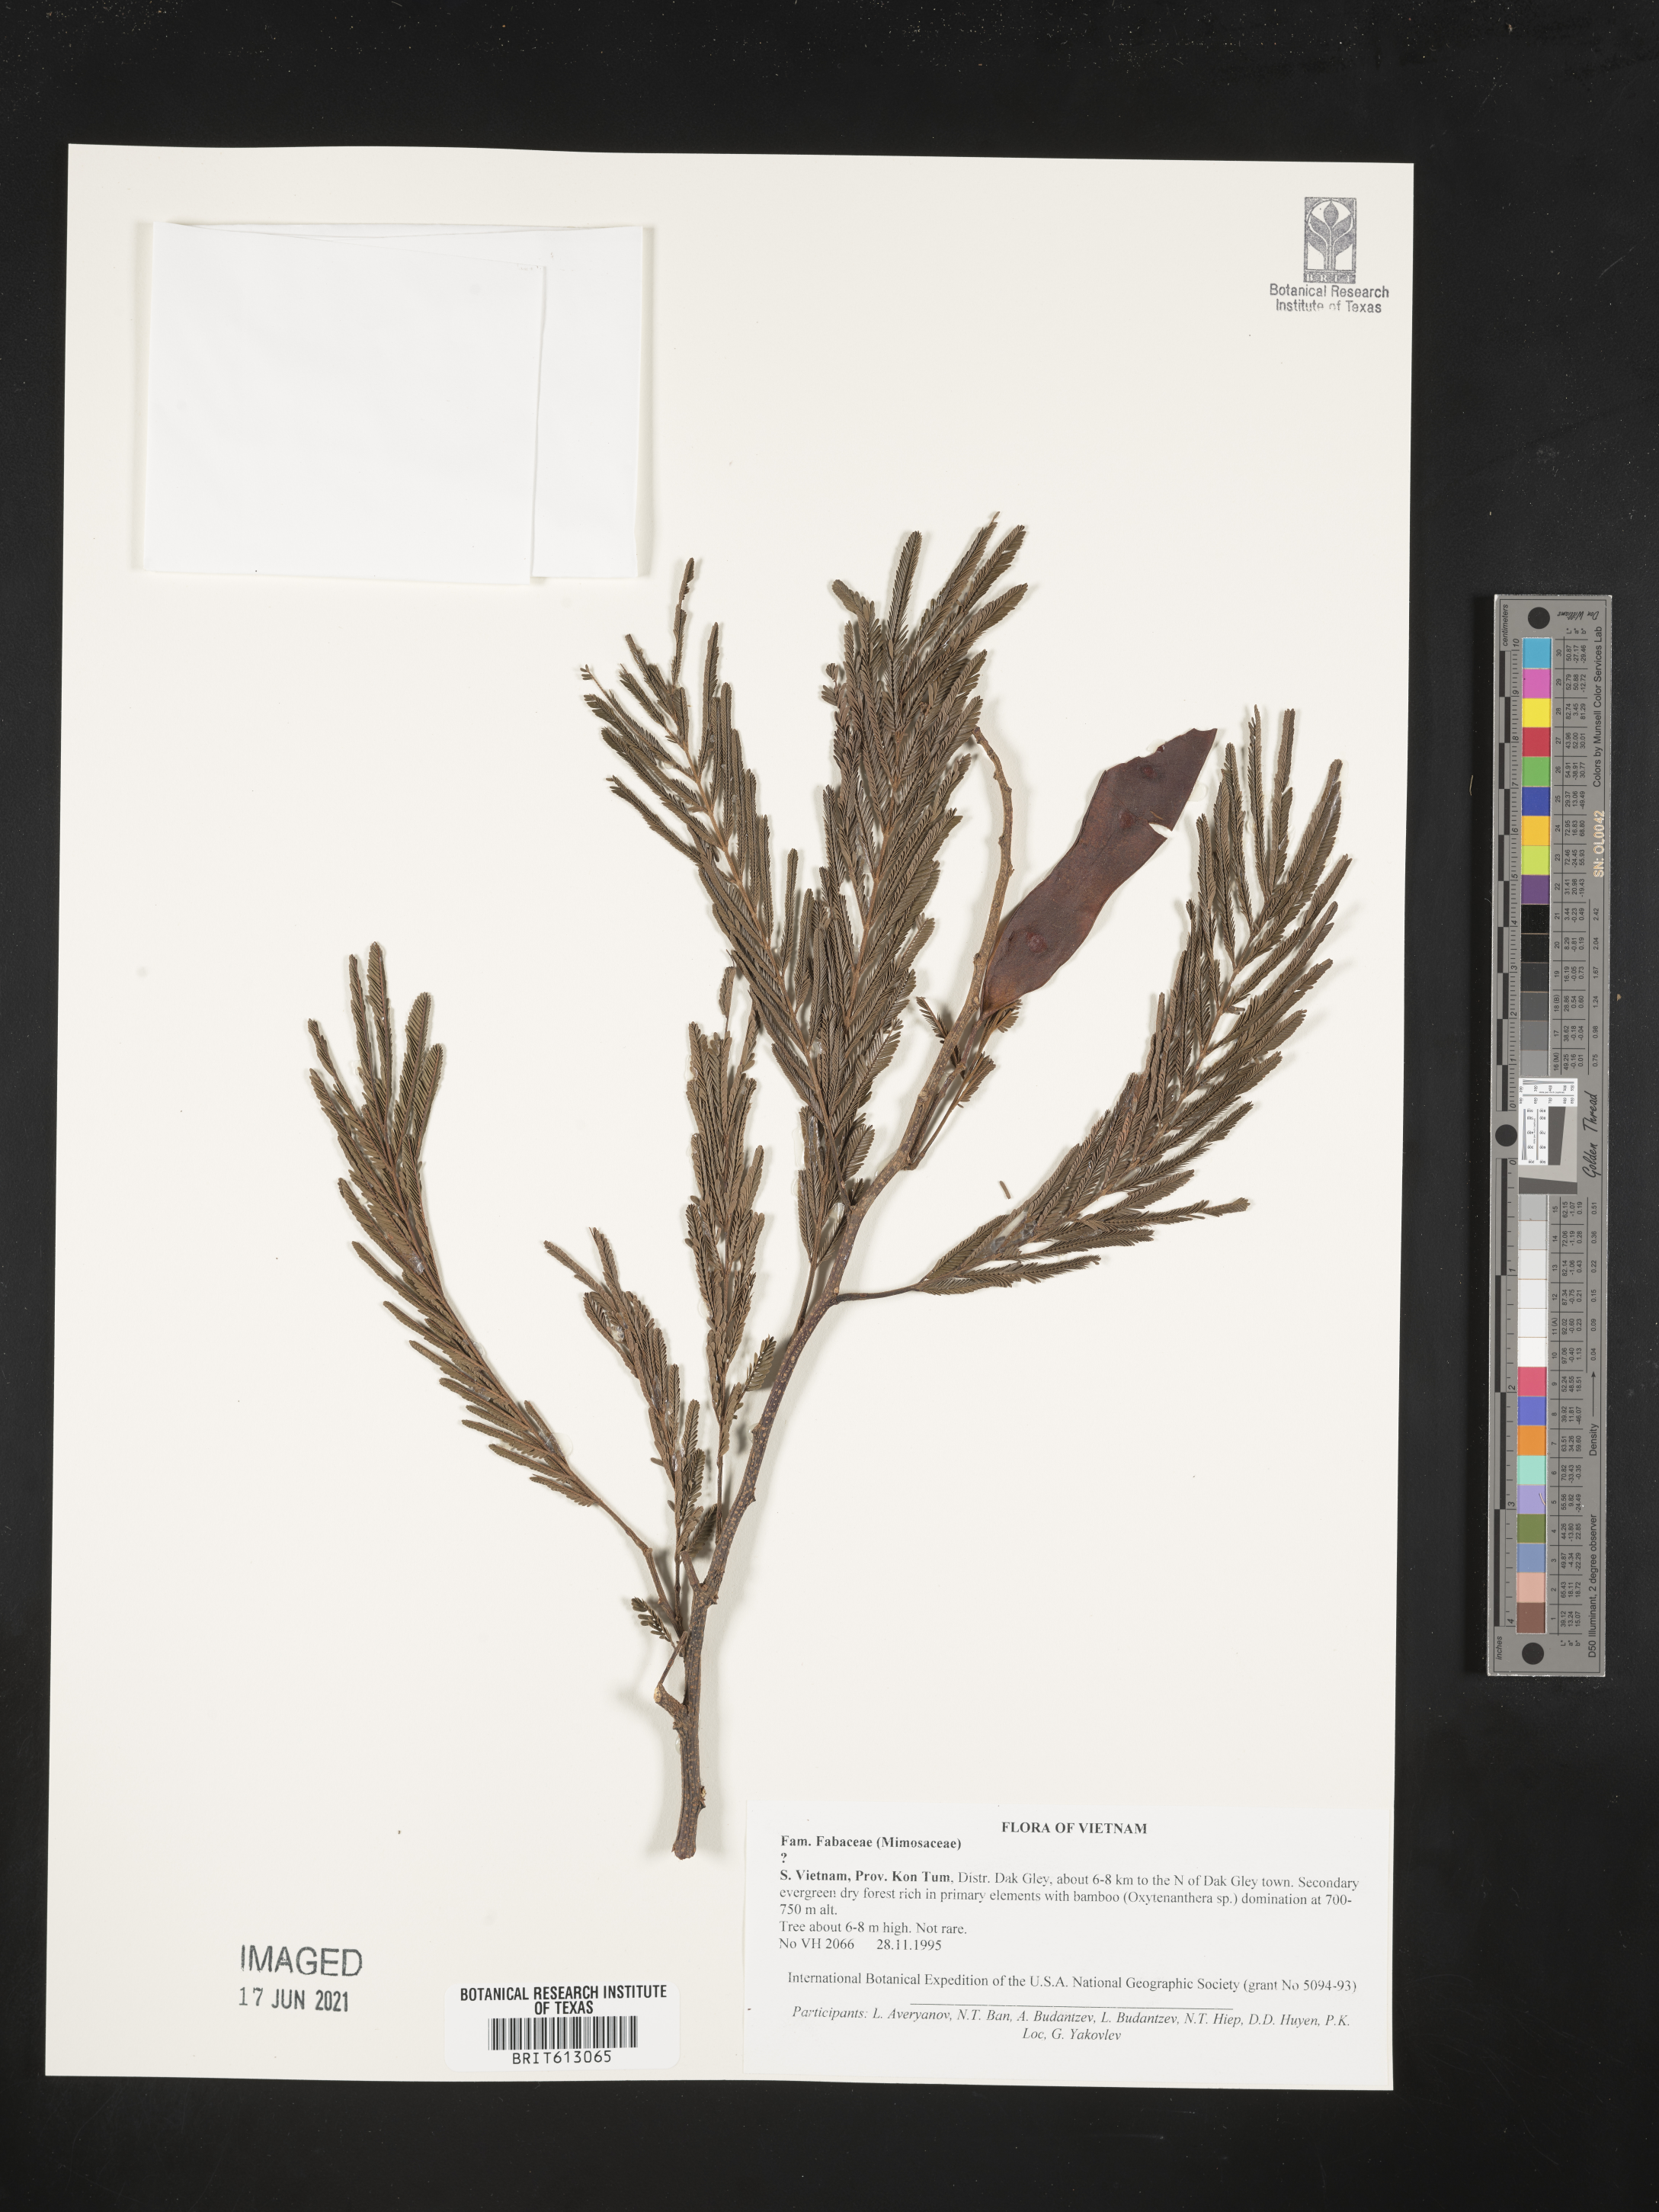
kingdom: Plantae
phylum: Tracheophyta
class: Magnoliopsida
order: Fabales
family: Fabaceae
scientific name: Fabaceae
